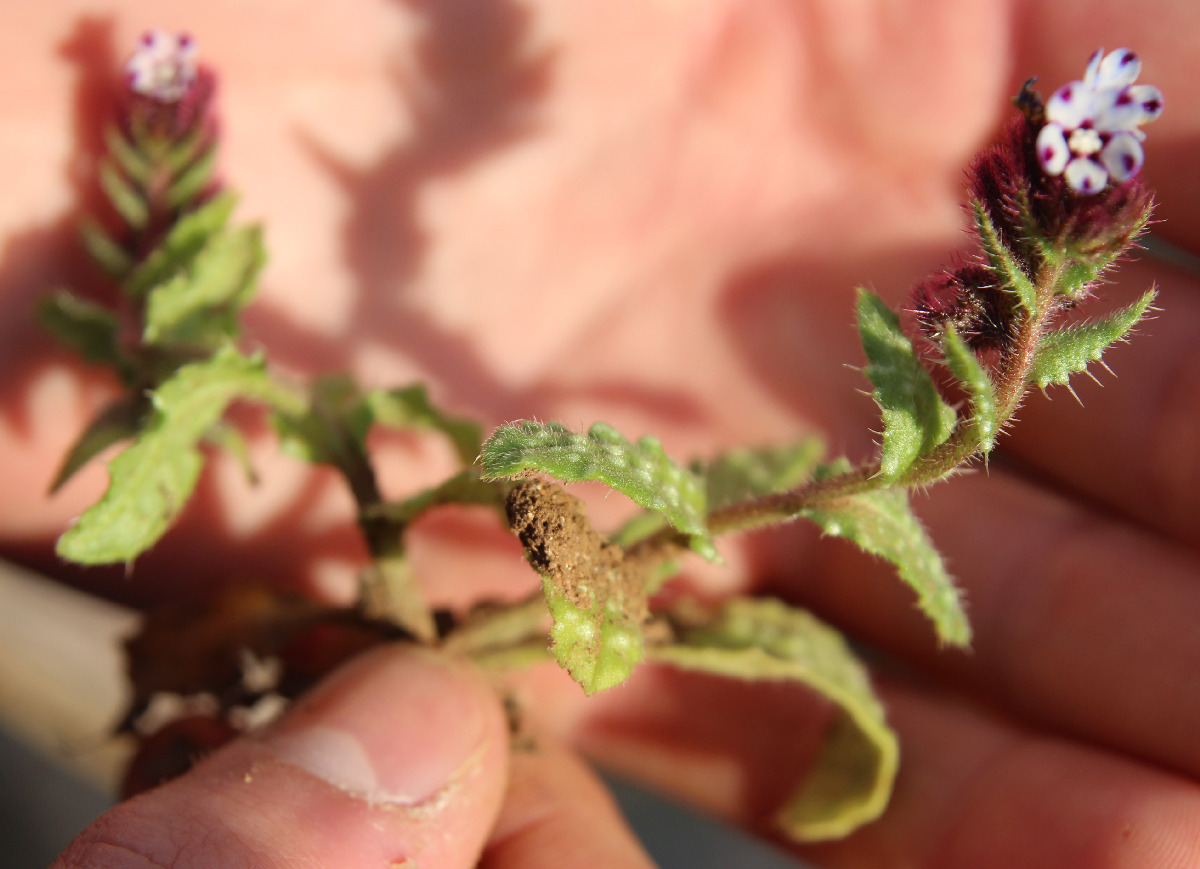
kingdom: Plantae
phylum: Tracheophyta
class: Magnoliopsida
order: Boraginales
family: Boraginaceae
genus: Anchusella
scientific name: Anchusella variegata
